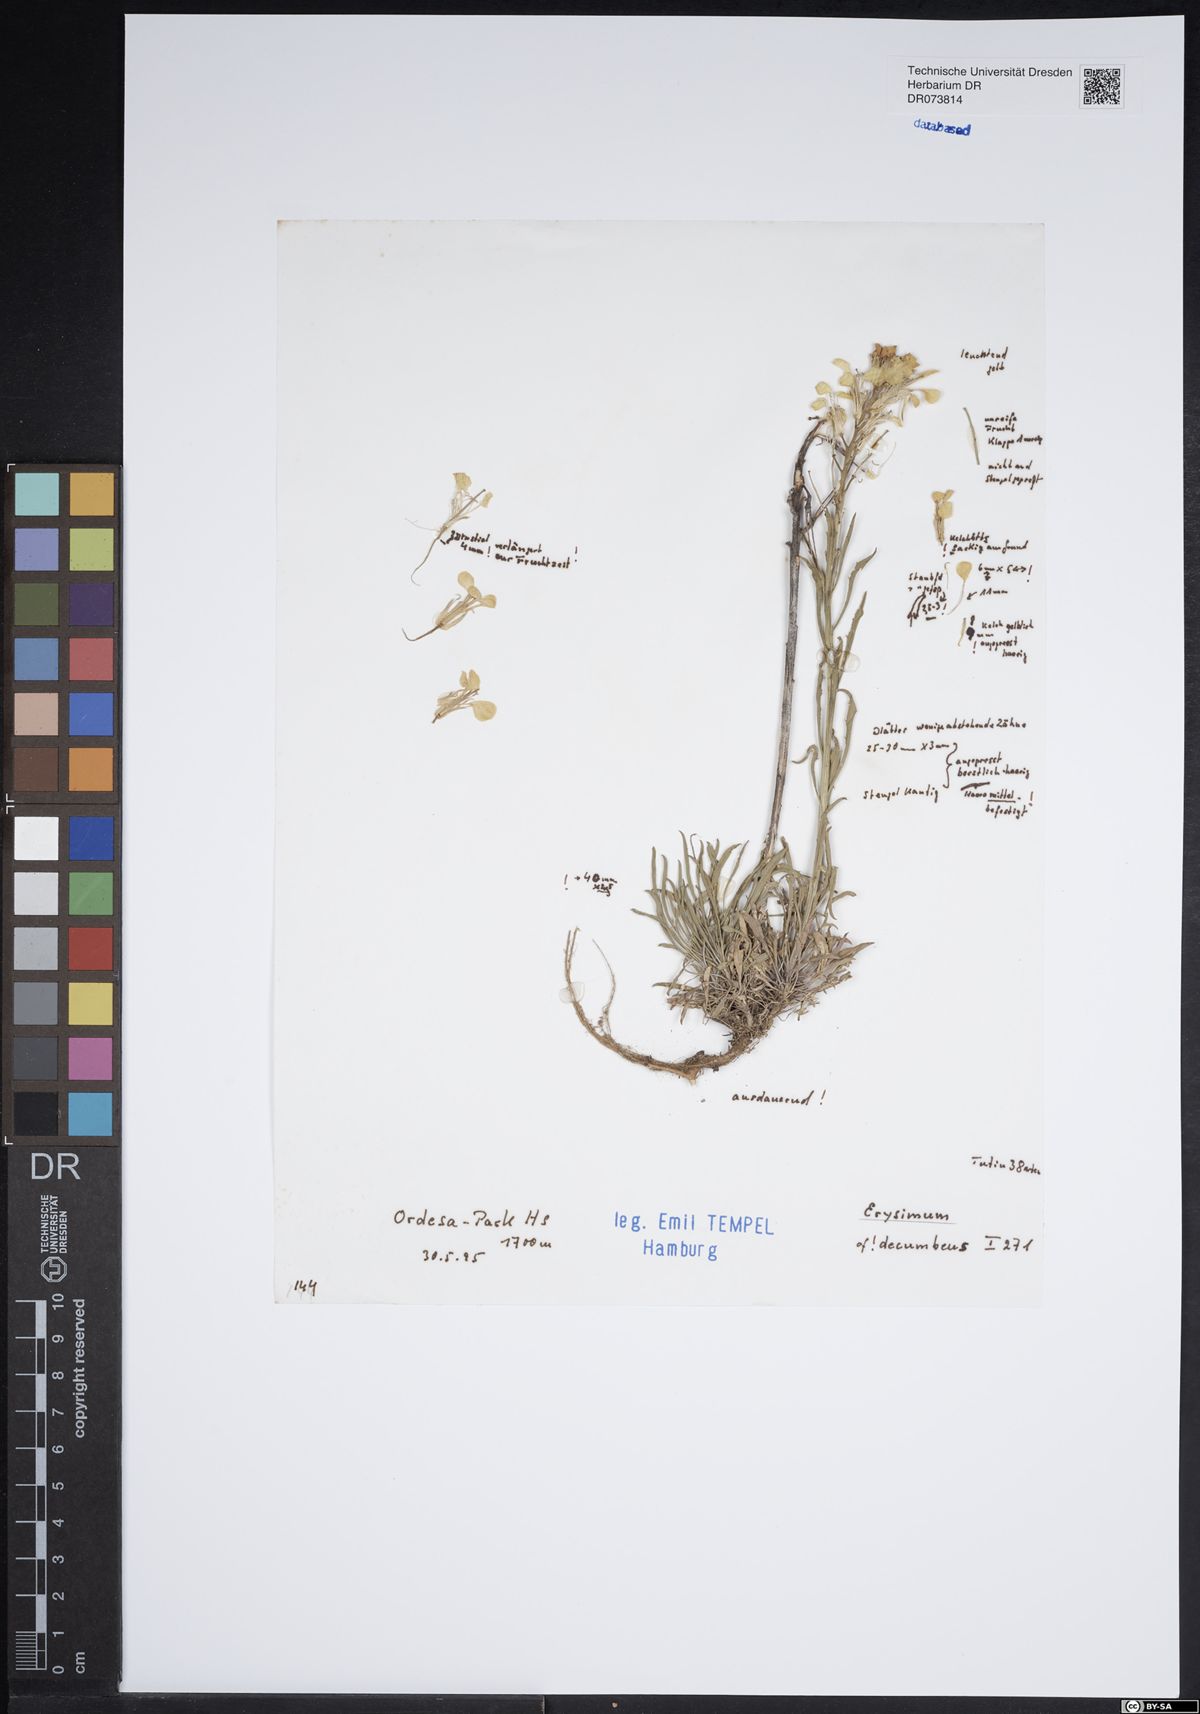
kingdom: Plantae
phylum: Tracheophyta
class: Magnoliopsida
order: Brassicales
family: Brassicaceae
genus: Erysimum
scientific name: Erysimum
